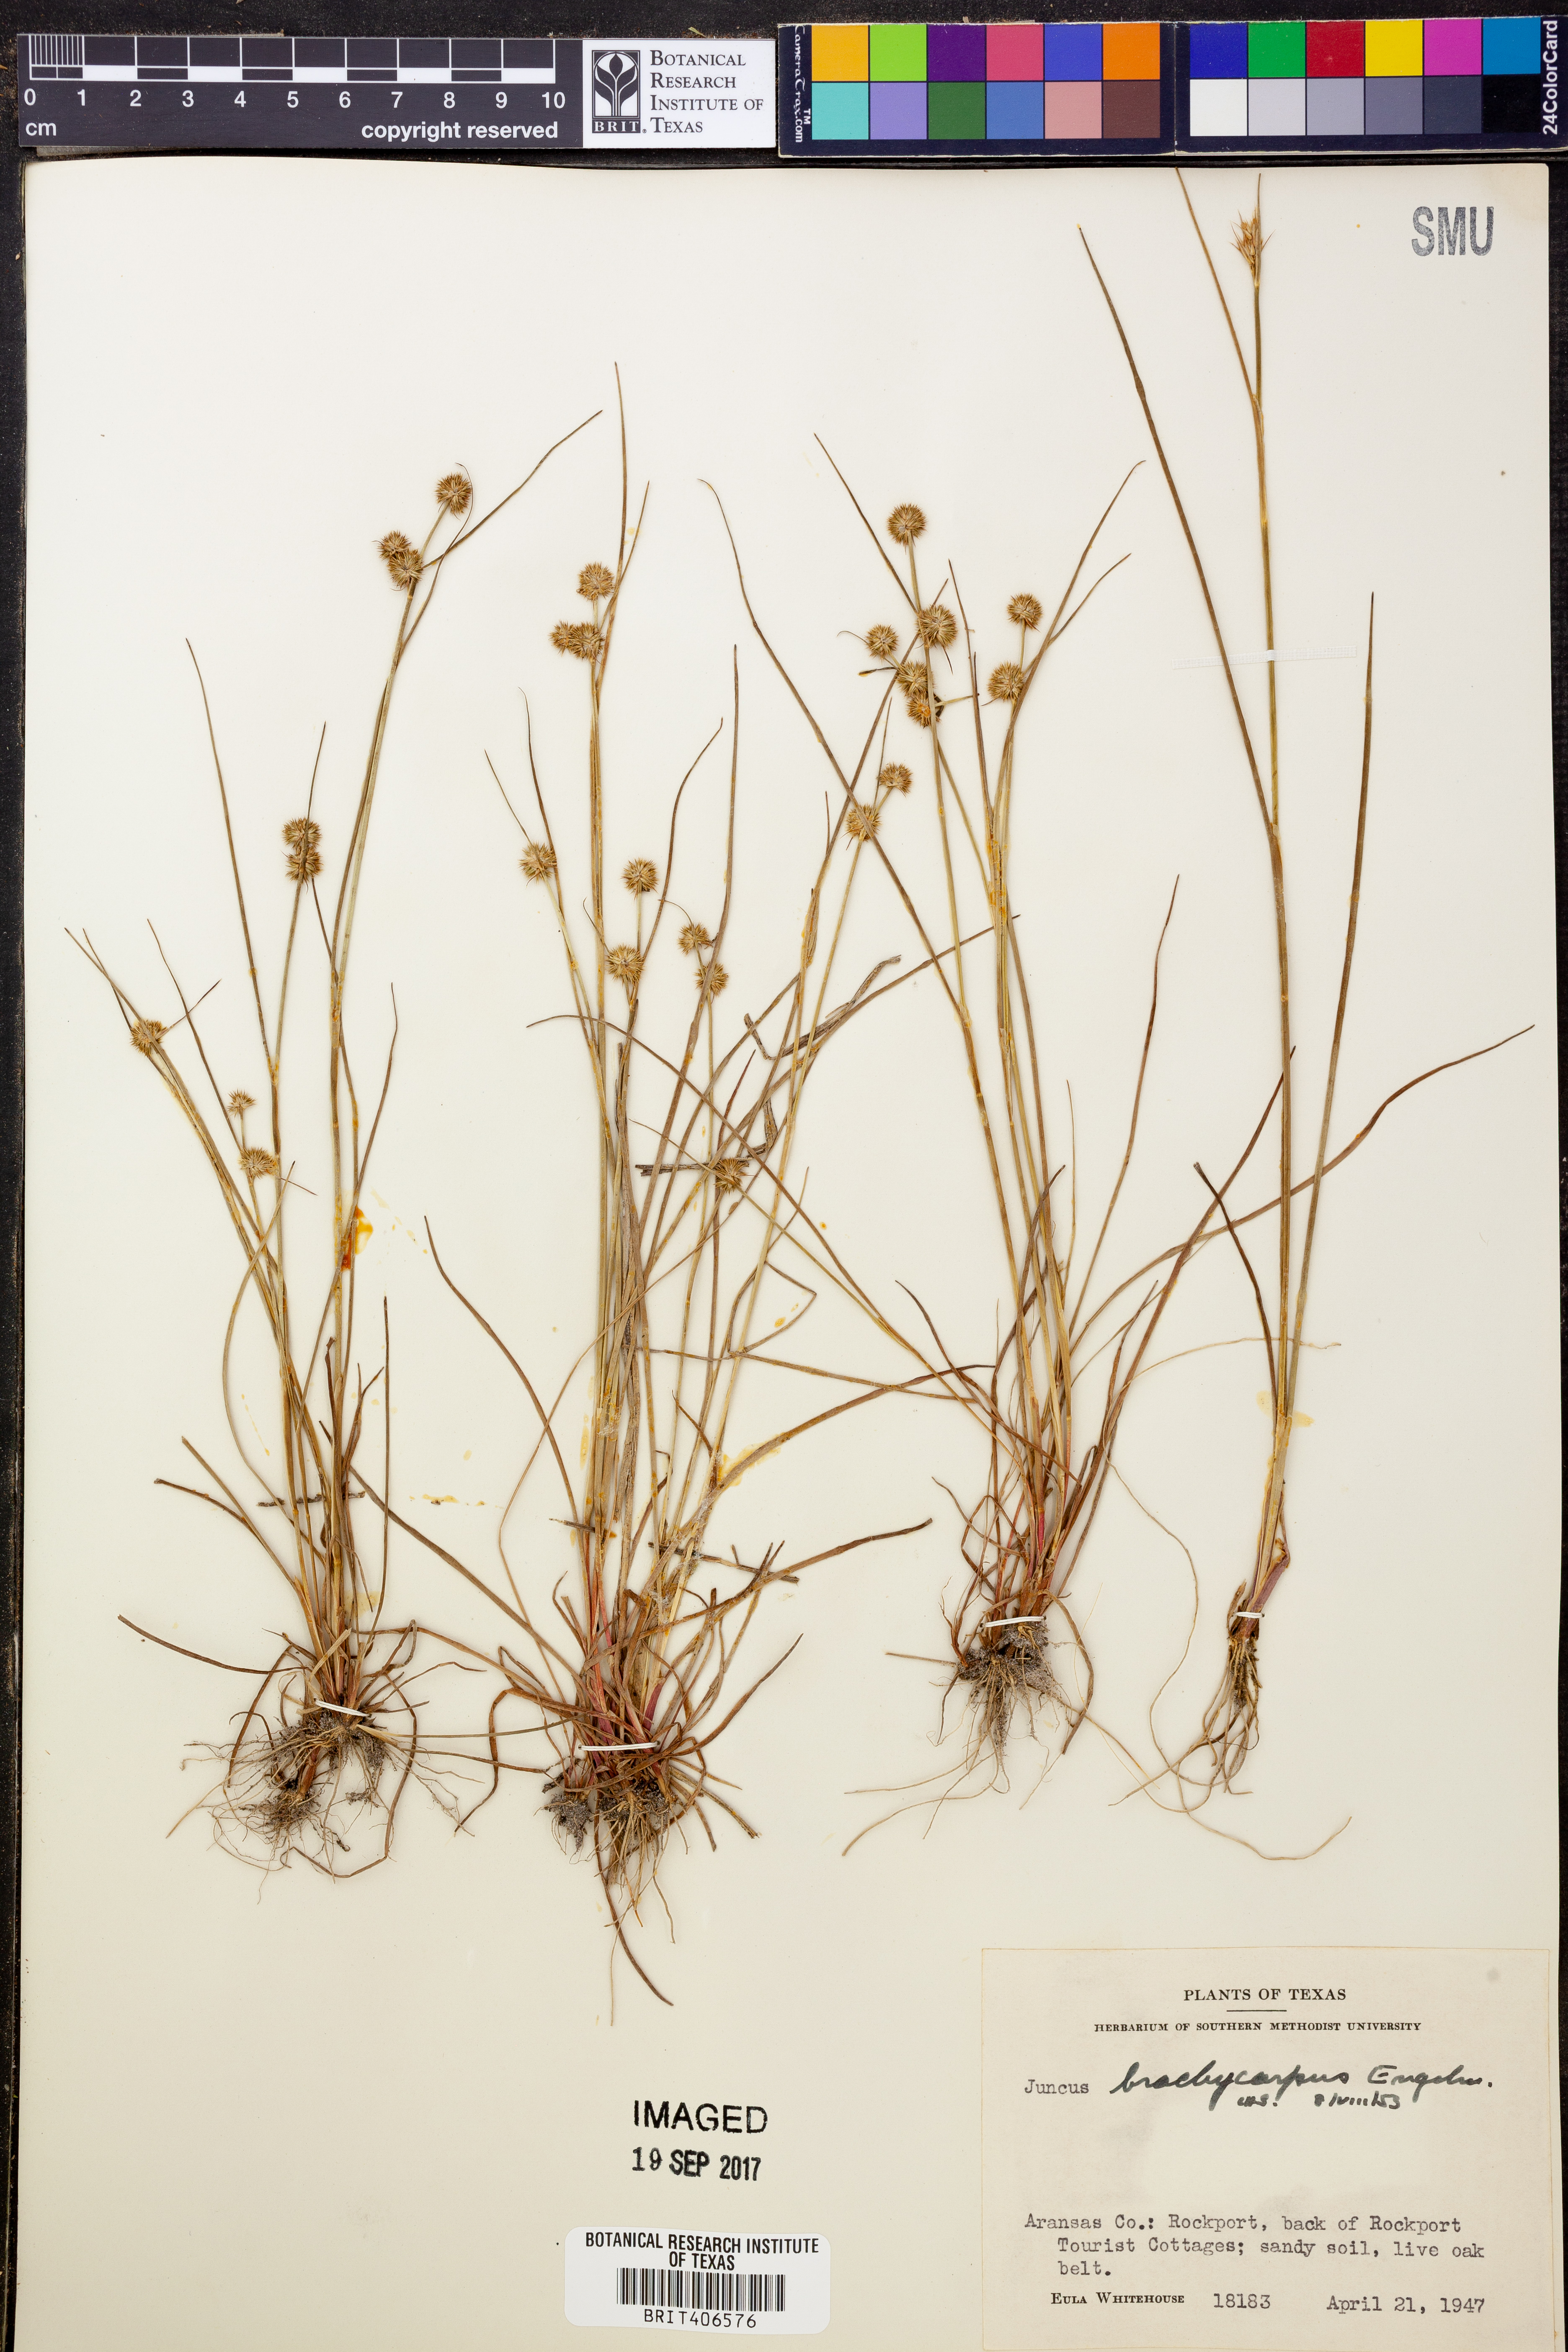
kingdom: Plantae
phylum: Tracheophyta
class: Liliopsida
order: Poales
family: Juncaceae
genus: Juncus
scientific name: Juncus brachycarpus
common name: Shore rush
